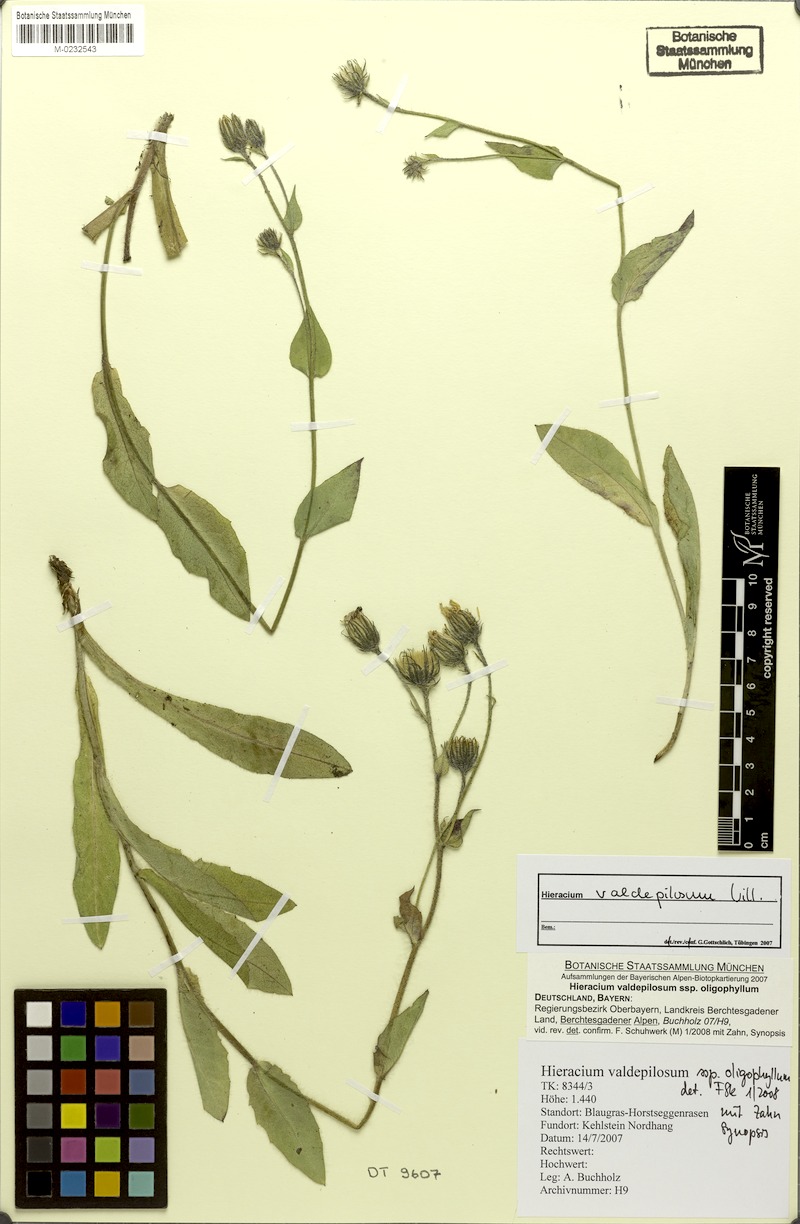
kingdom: Plantae
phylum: Tracheophyta
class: Magnoliopsida
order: Asterales
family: Asteraceae
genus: Hieracium
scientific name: Hieracium valdepilosum
